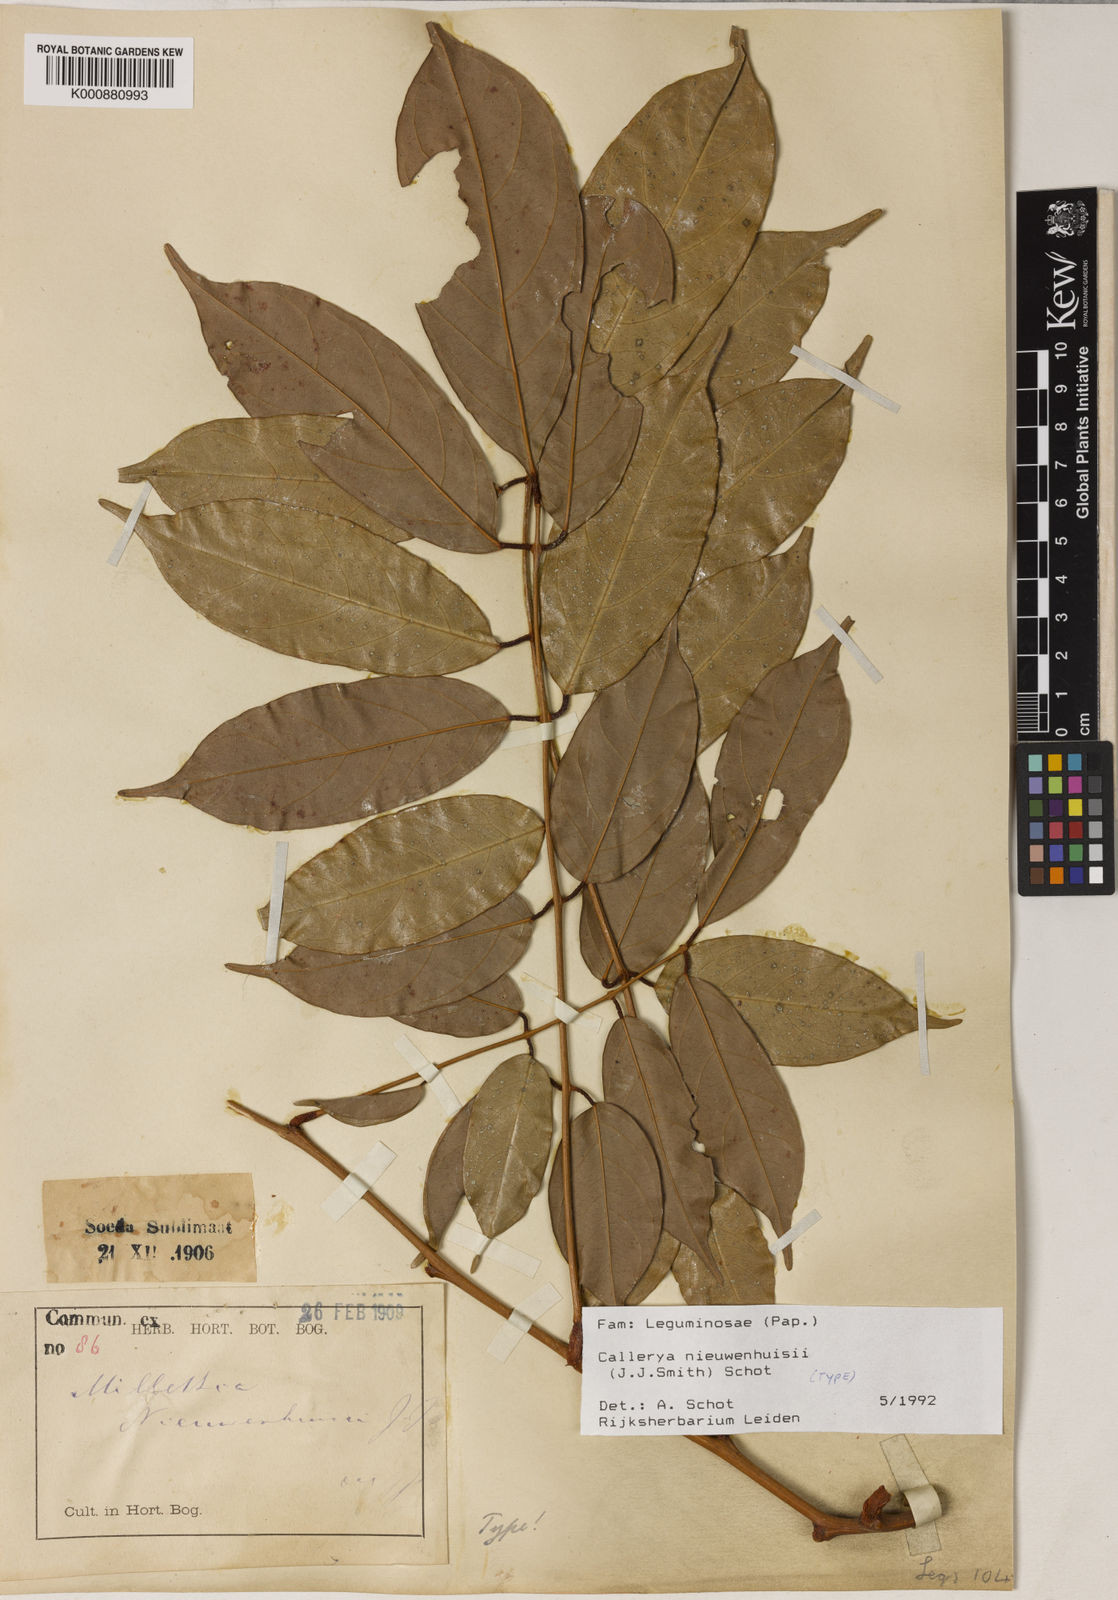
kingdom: Plantae
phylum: Tracheophyta
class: Magnoliopsida
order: Fabales
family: Fabaceae
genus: Whitfordiodendron
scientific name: Whitfordiodendron nieuwenhuisii
